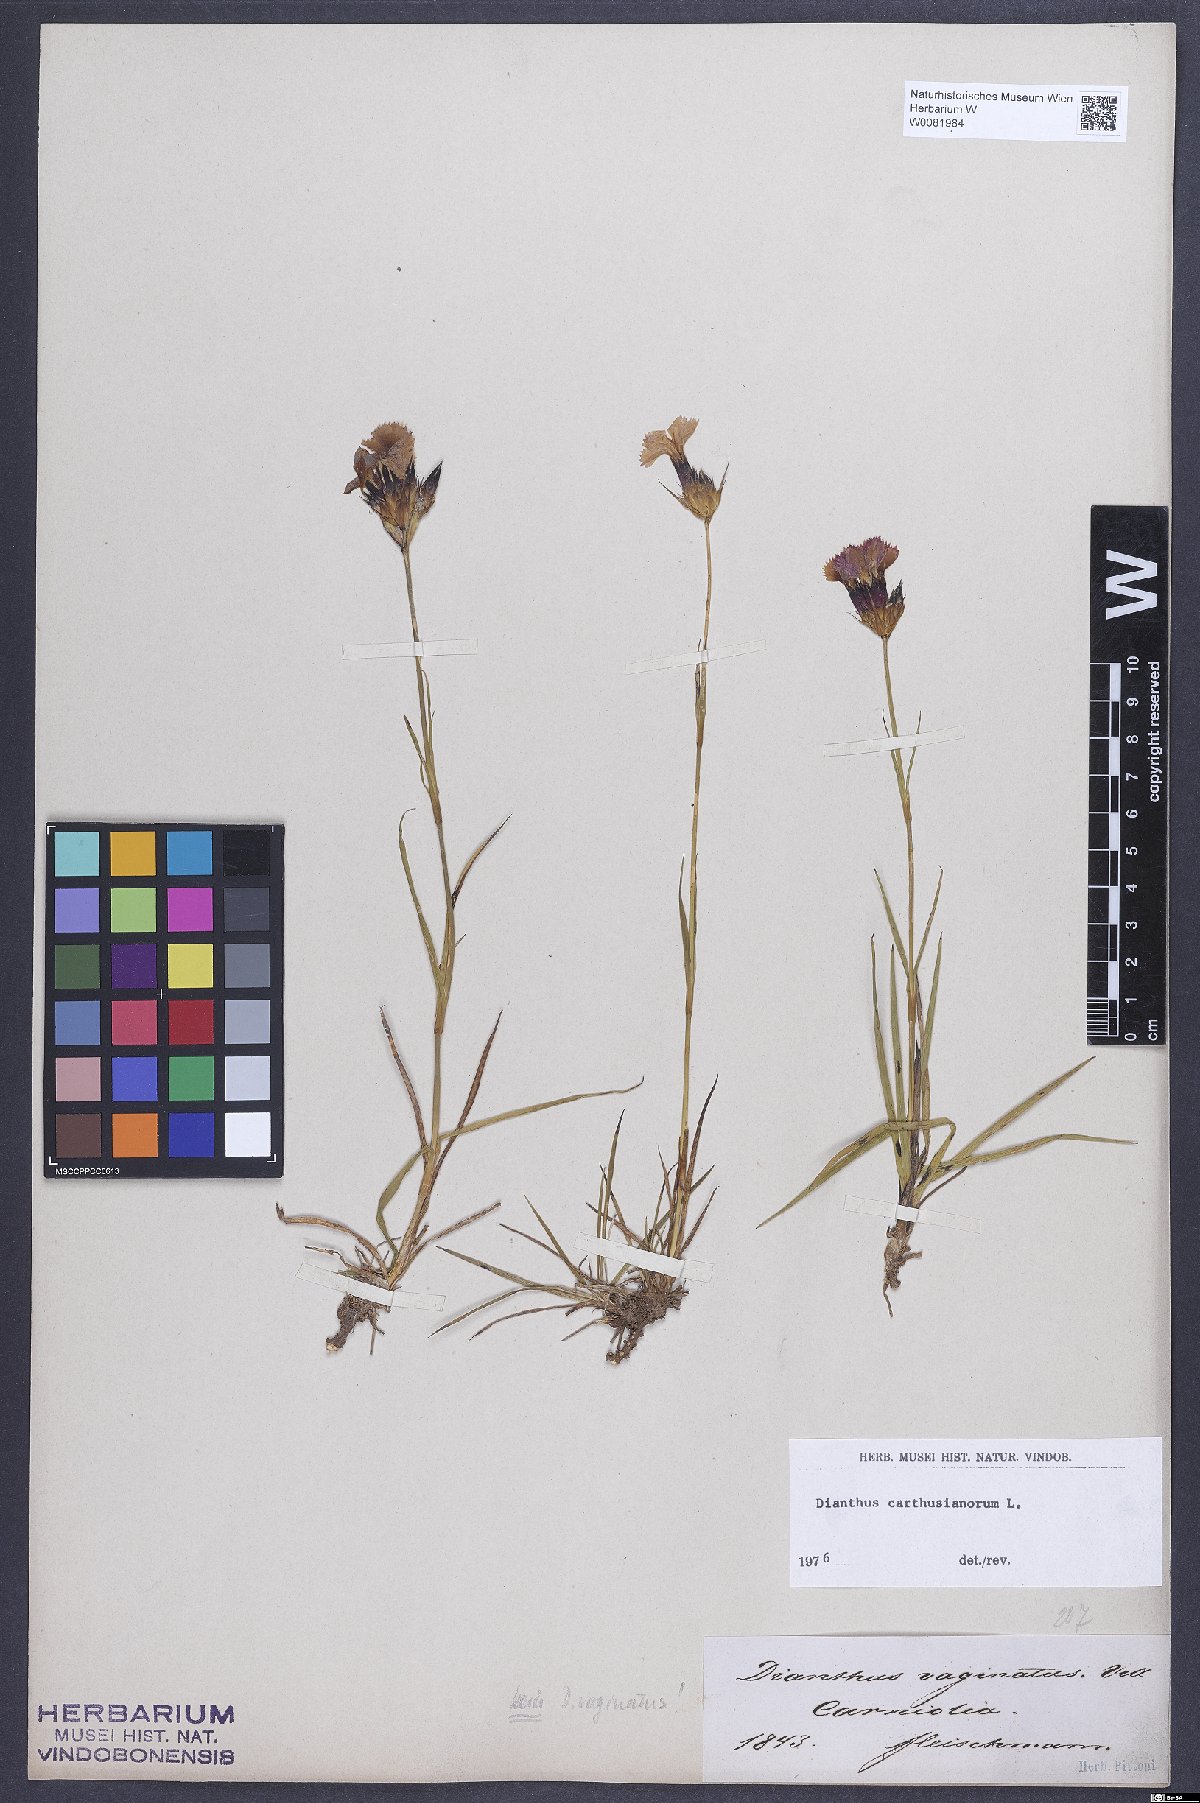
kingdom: Plantae
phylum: Tracheophyta
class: Magnoliopsida
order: Caryophyllales
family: Caryophyllaceae
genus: Dianthus
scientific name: Dianthus carthusianorum
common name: Carthusian pink
